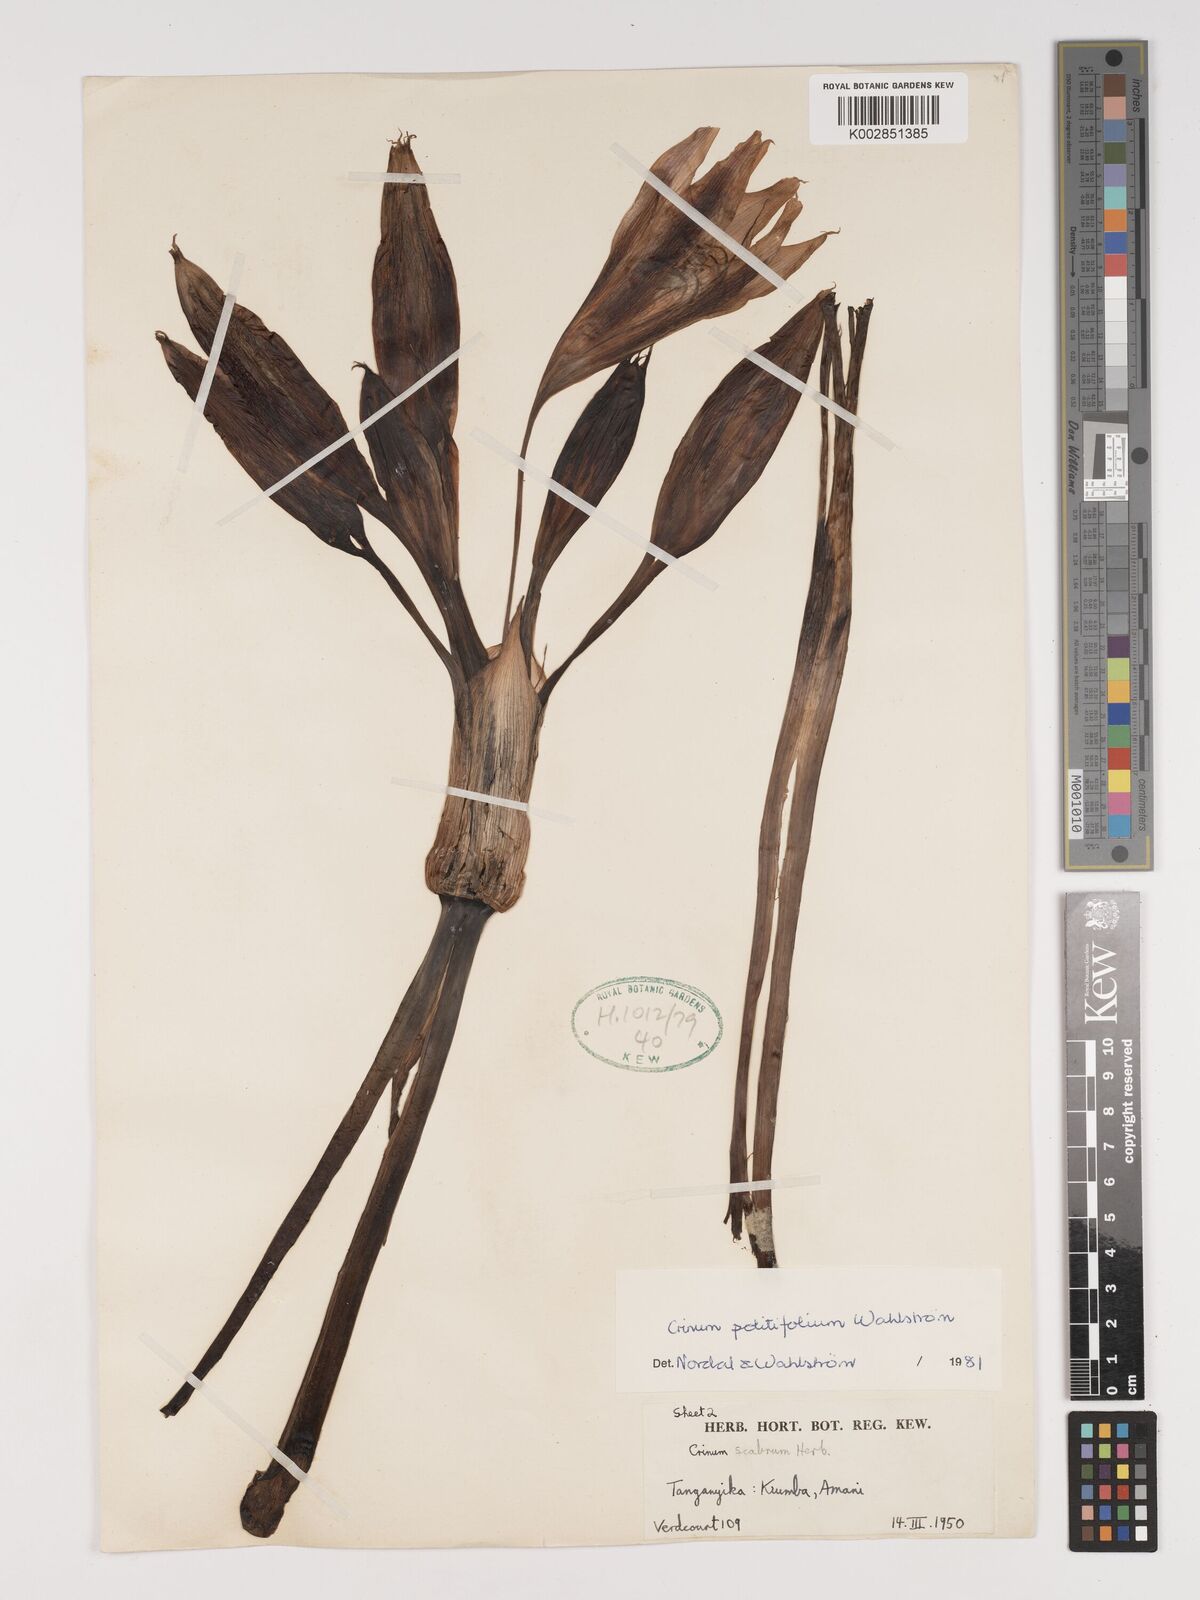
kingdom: Plantae
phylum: Tracheophyta
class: Liliopsida
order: Asparagales
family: Amaryllidaceae
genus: Crinum
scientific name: Crinum politifolium
